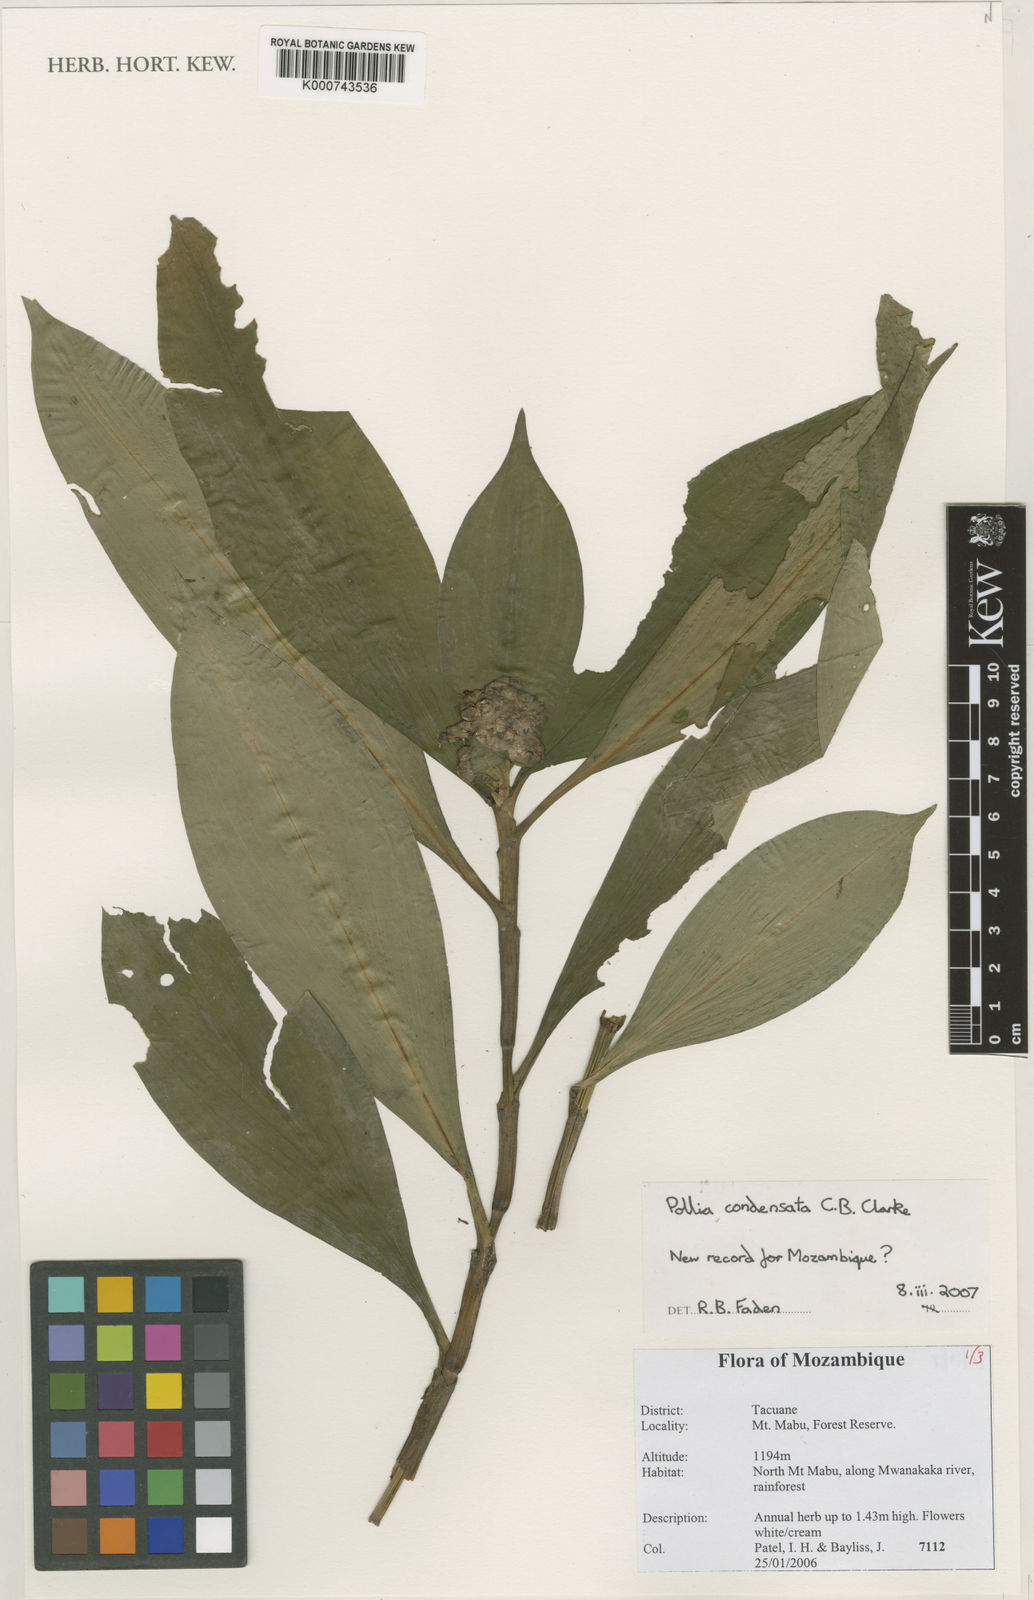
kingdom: Plantae
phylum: Tracheophyta
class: Liliopsida
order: Commelinales
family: Commelinaceae
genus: Pollia
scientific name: Pollia condensata
